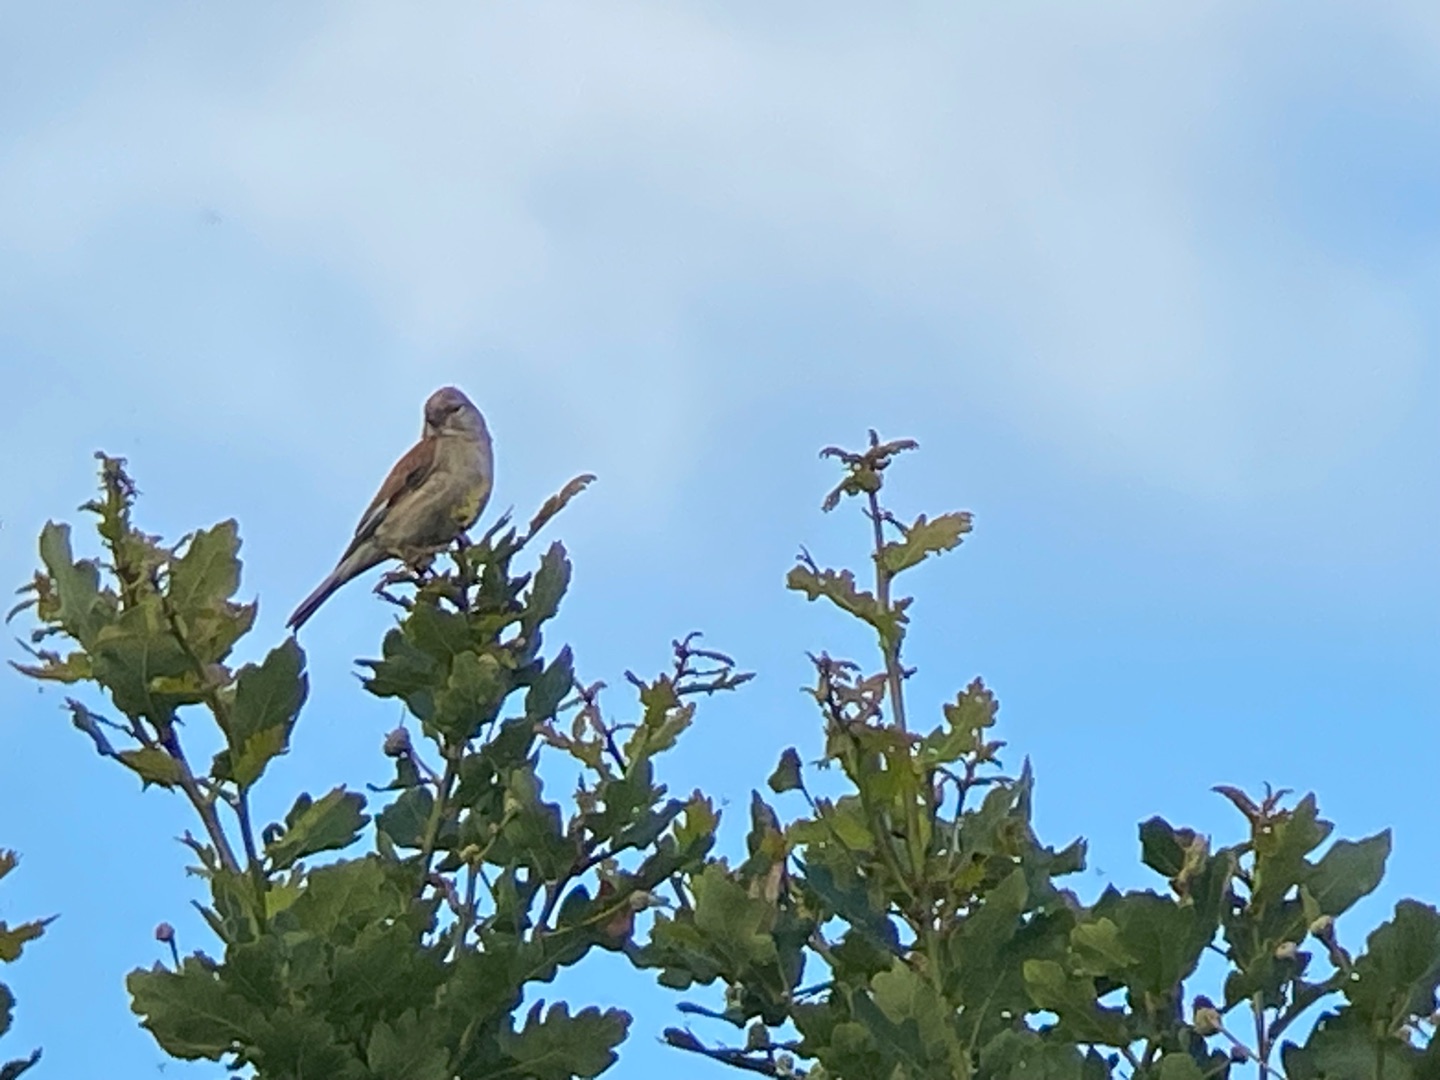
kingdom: Animalia
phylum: Chordata
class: Aves
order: Passeriformes
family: Fringillidae
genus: Linaria
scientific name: Linaria cannabina
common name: Tornirisk
